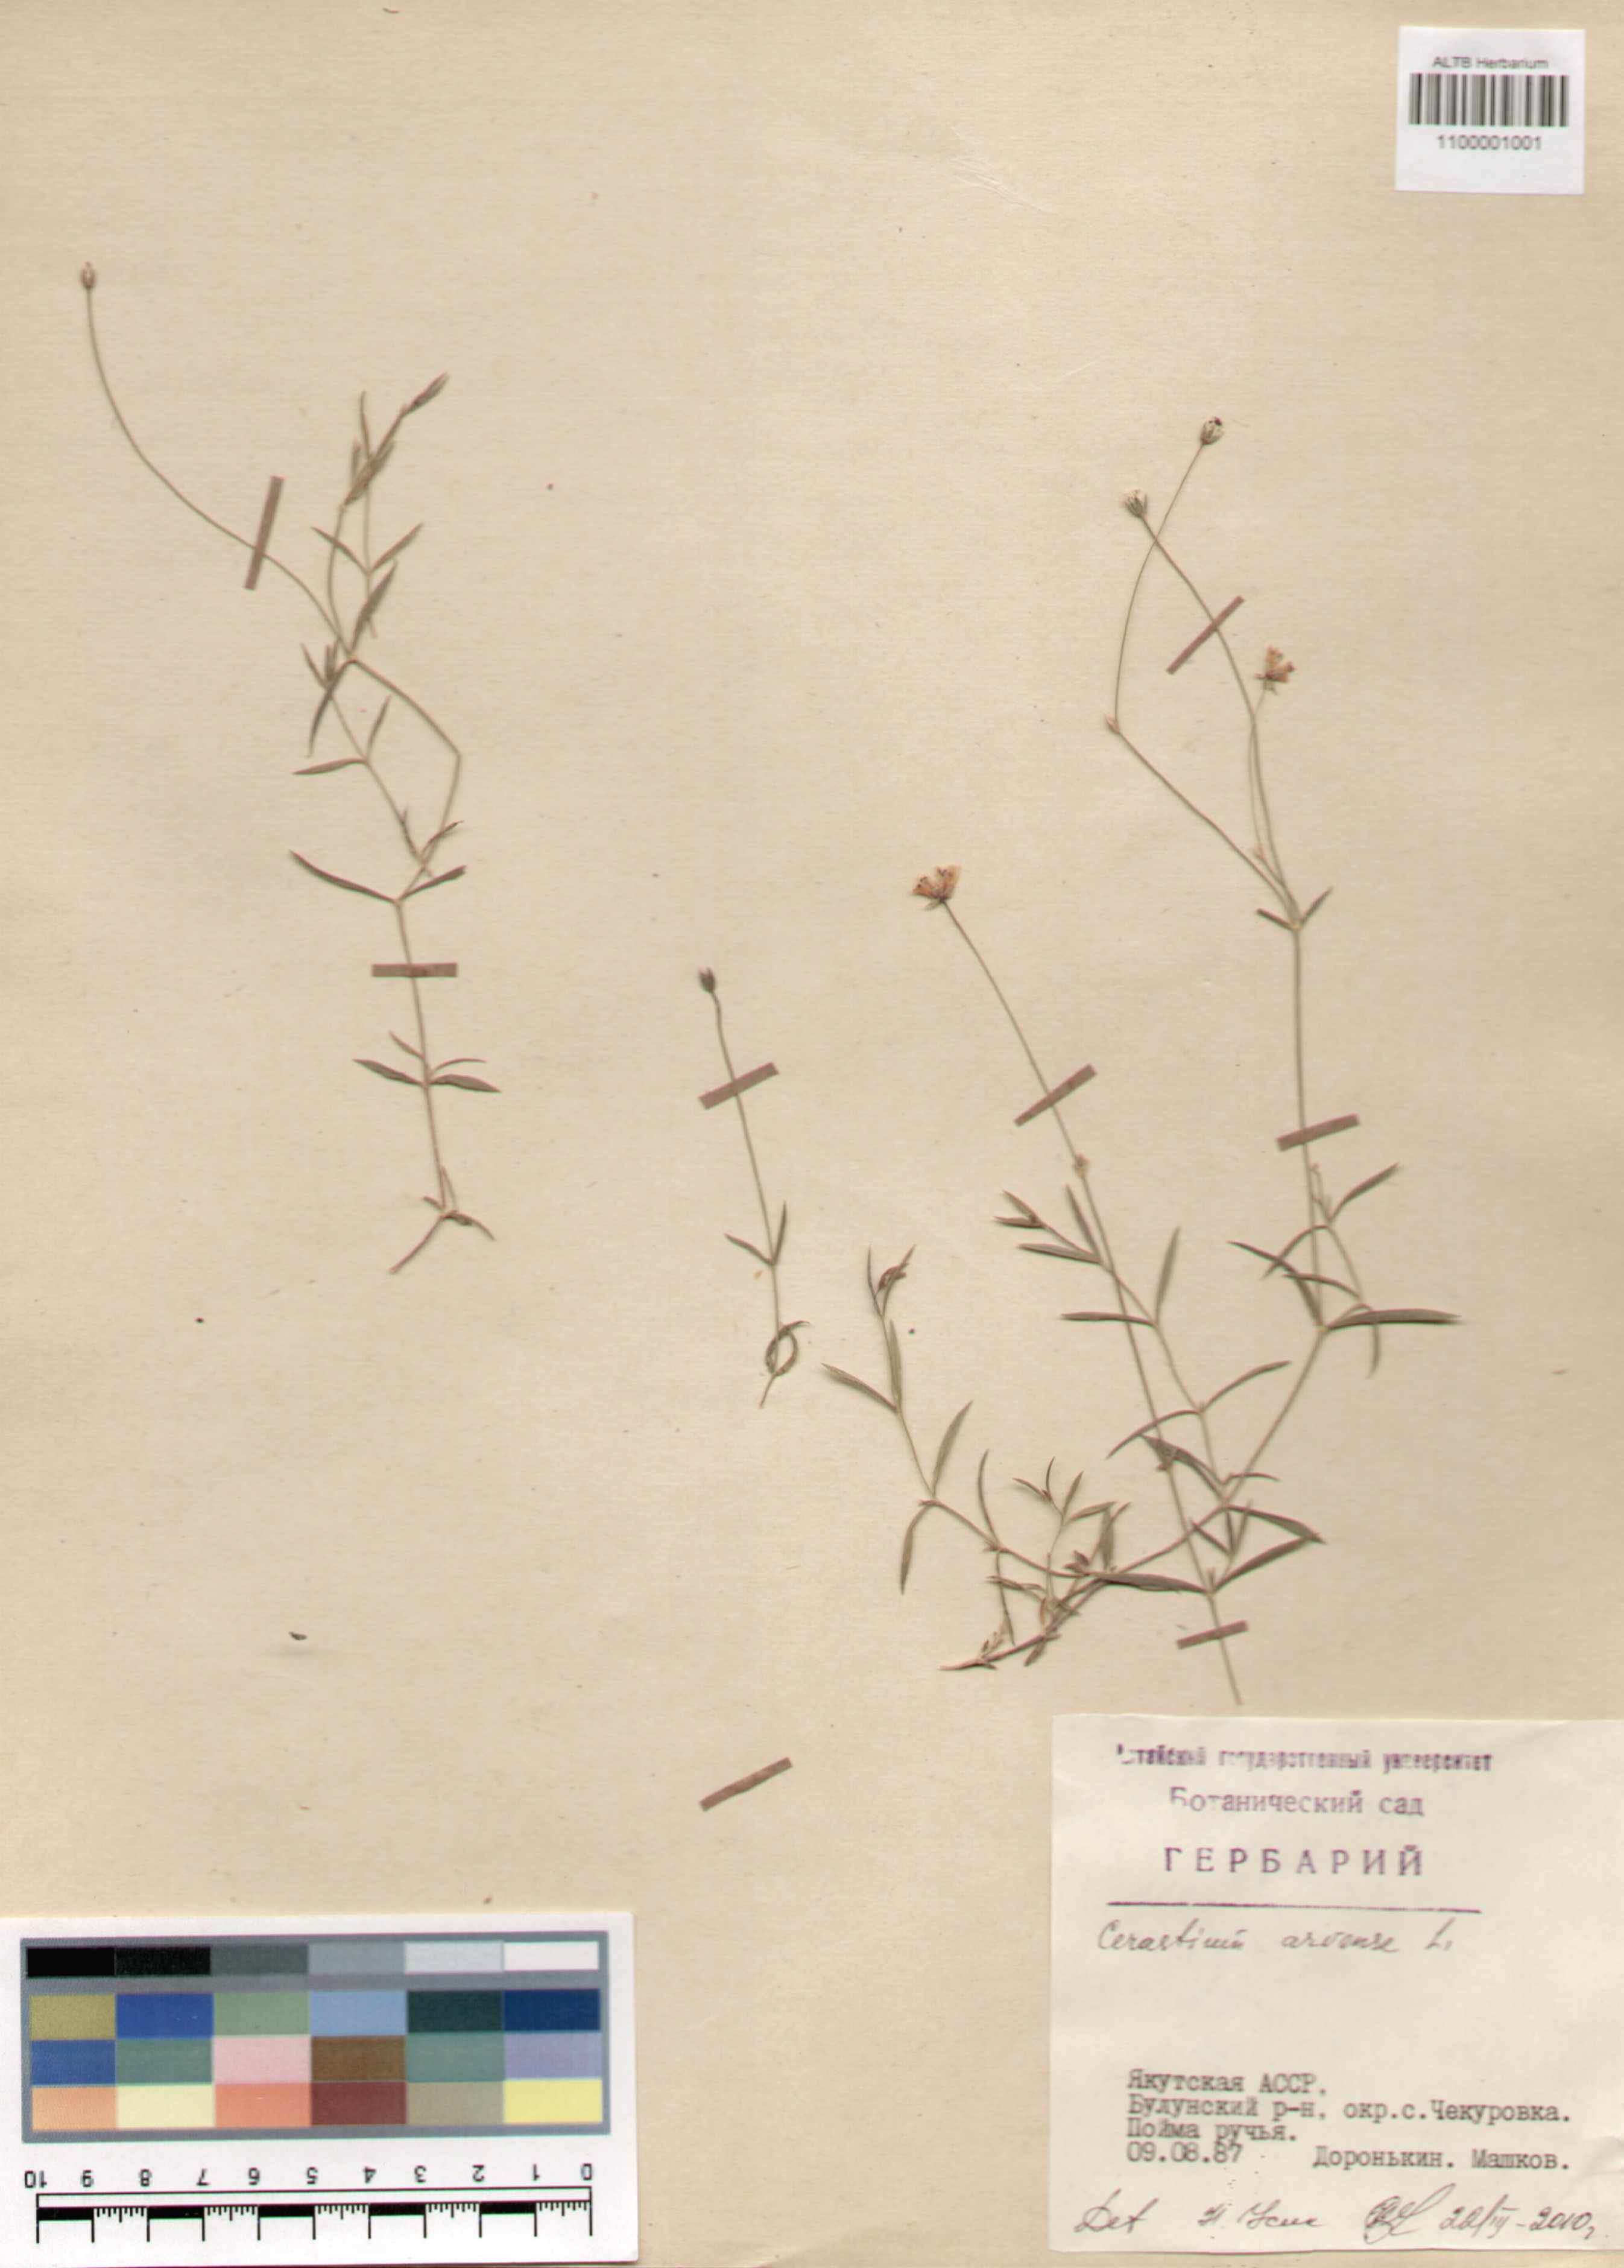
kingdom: Plantae
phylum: Tracheophyta
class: Magnoliopsida
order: Caryophyllales
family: Caryophyllaceae
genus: Cerastium
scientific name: Cerastium arvense
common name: Field mouse-ear
